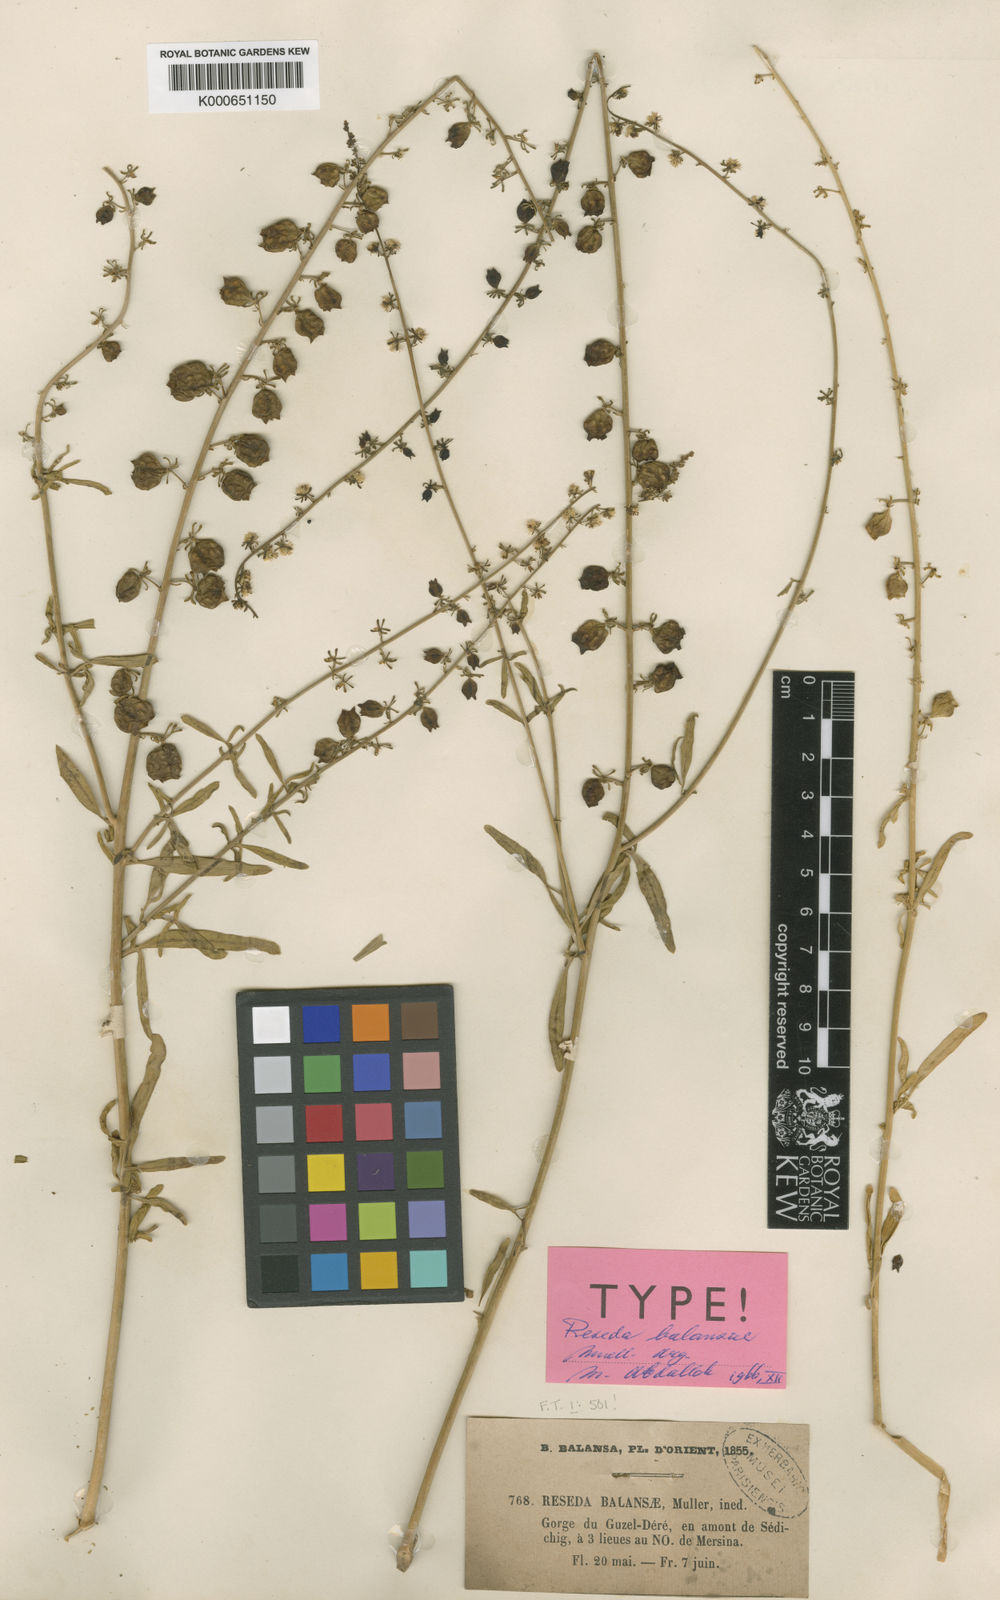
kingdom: Plantae
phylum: Tracheophyta
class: Magnoliopsida
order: Brassicales
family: Resedaceae
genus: Reseda
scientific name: Reseda
